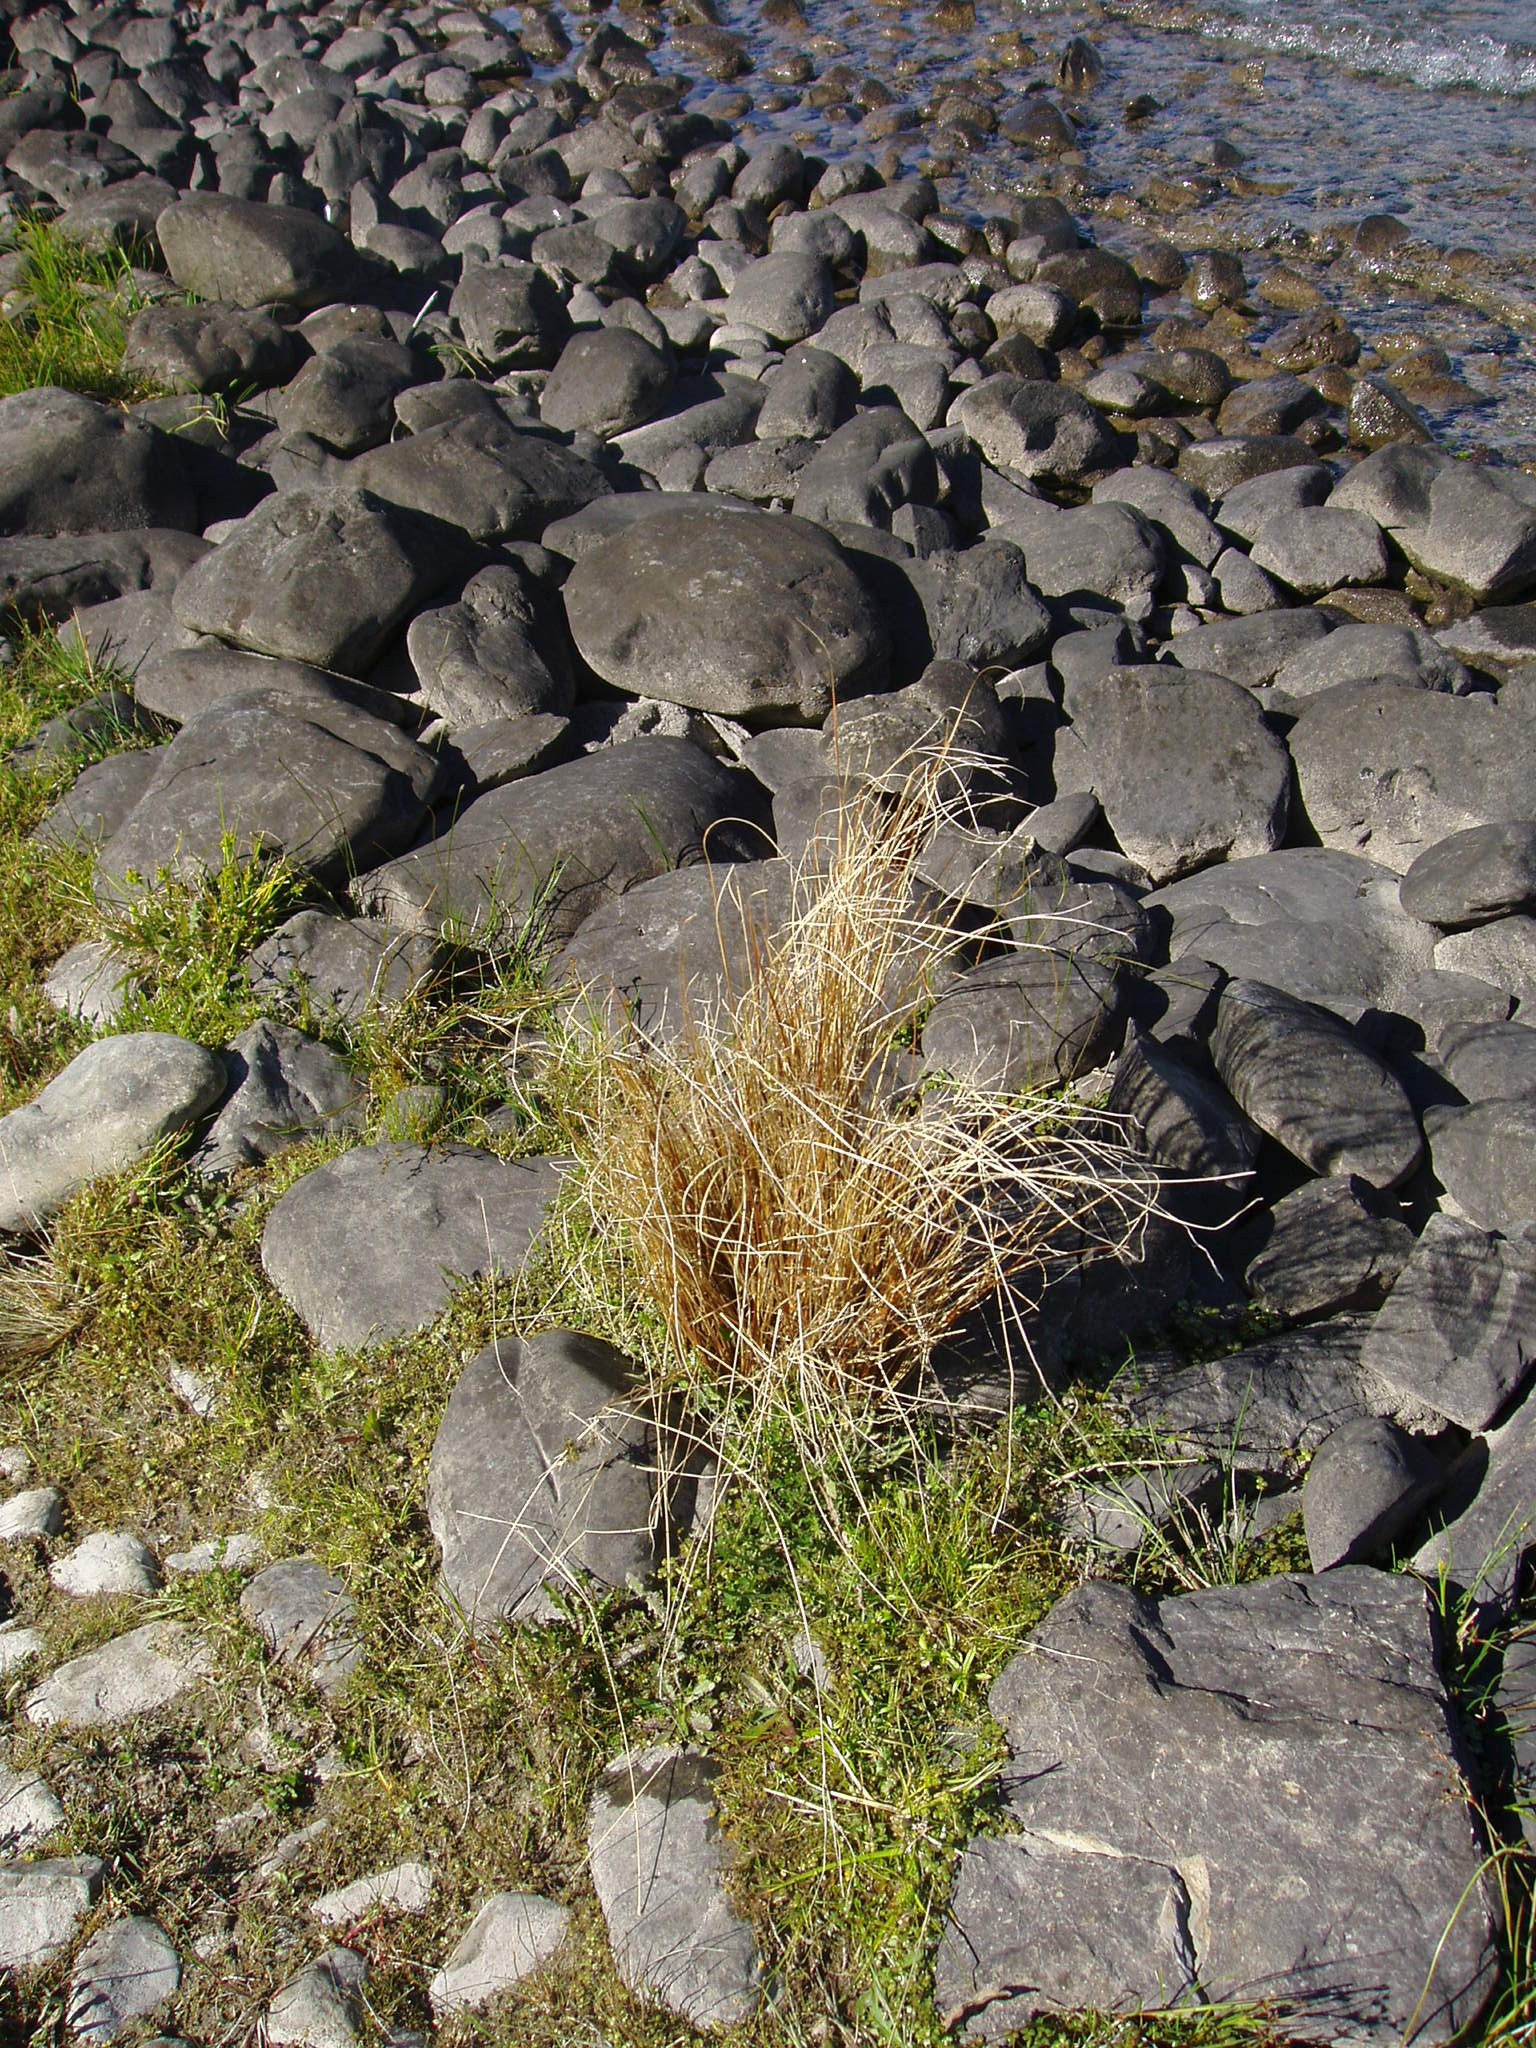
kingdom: Plantae
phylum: Tracheophyta
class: Liliopsida
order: Poales
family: Cyperaceae
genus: Carex
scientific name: Carex kaloides
